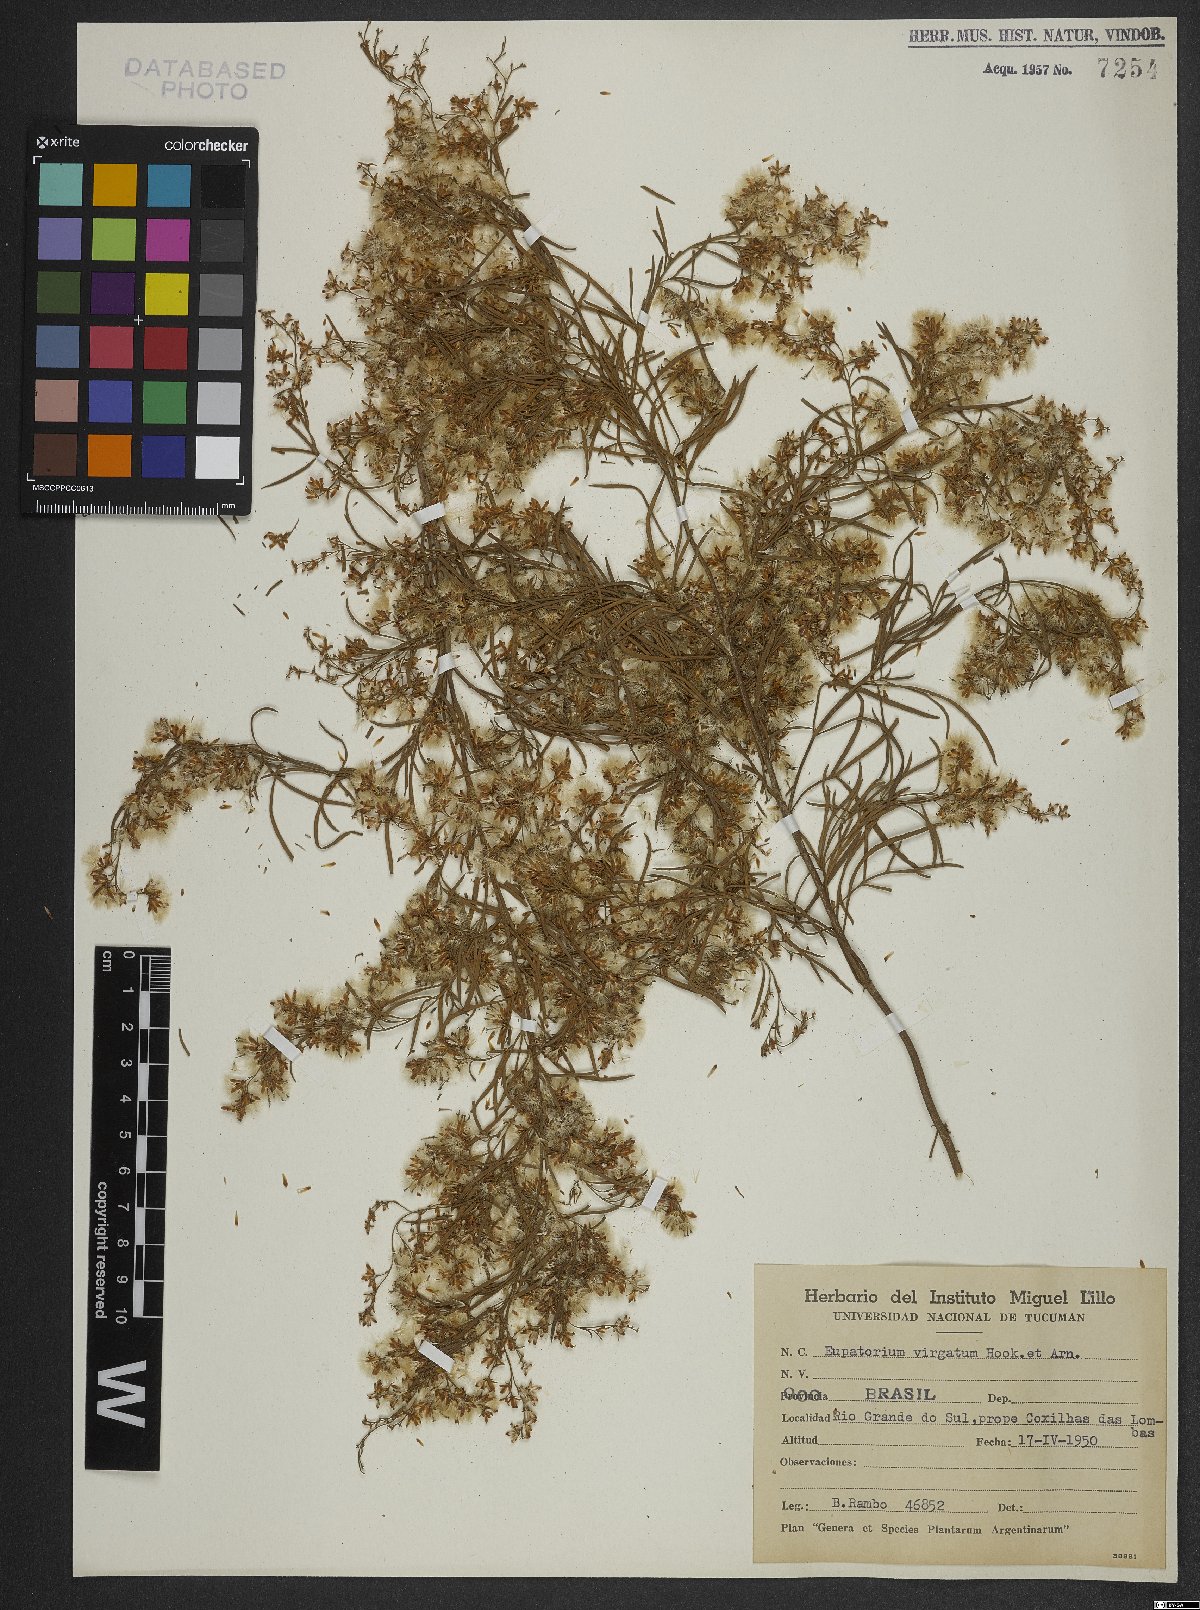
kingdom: Plantae
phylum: Tracheophyta
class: Magnoliopsida
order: Asterales
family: Asteraceae
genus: Acanthostyles
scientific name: Acanthostyles buniifolius
